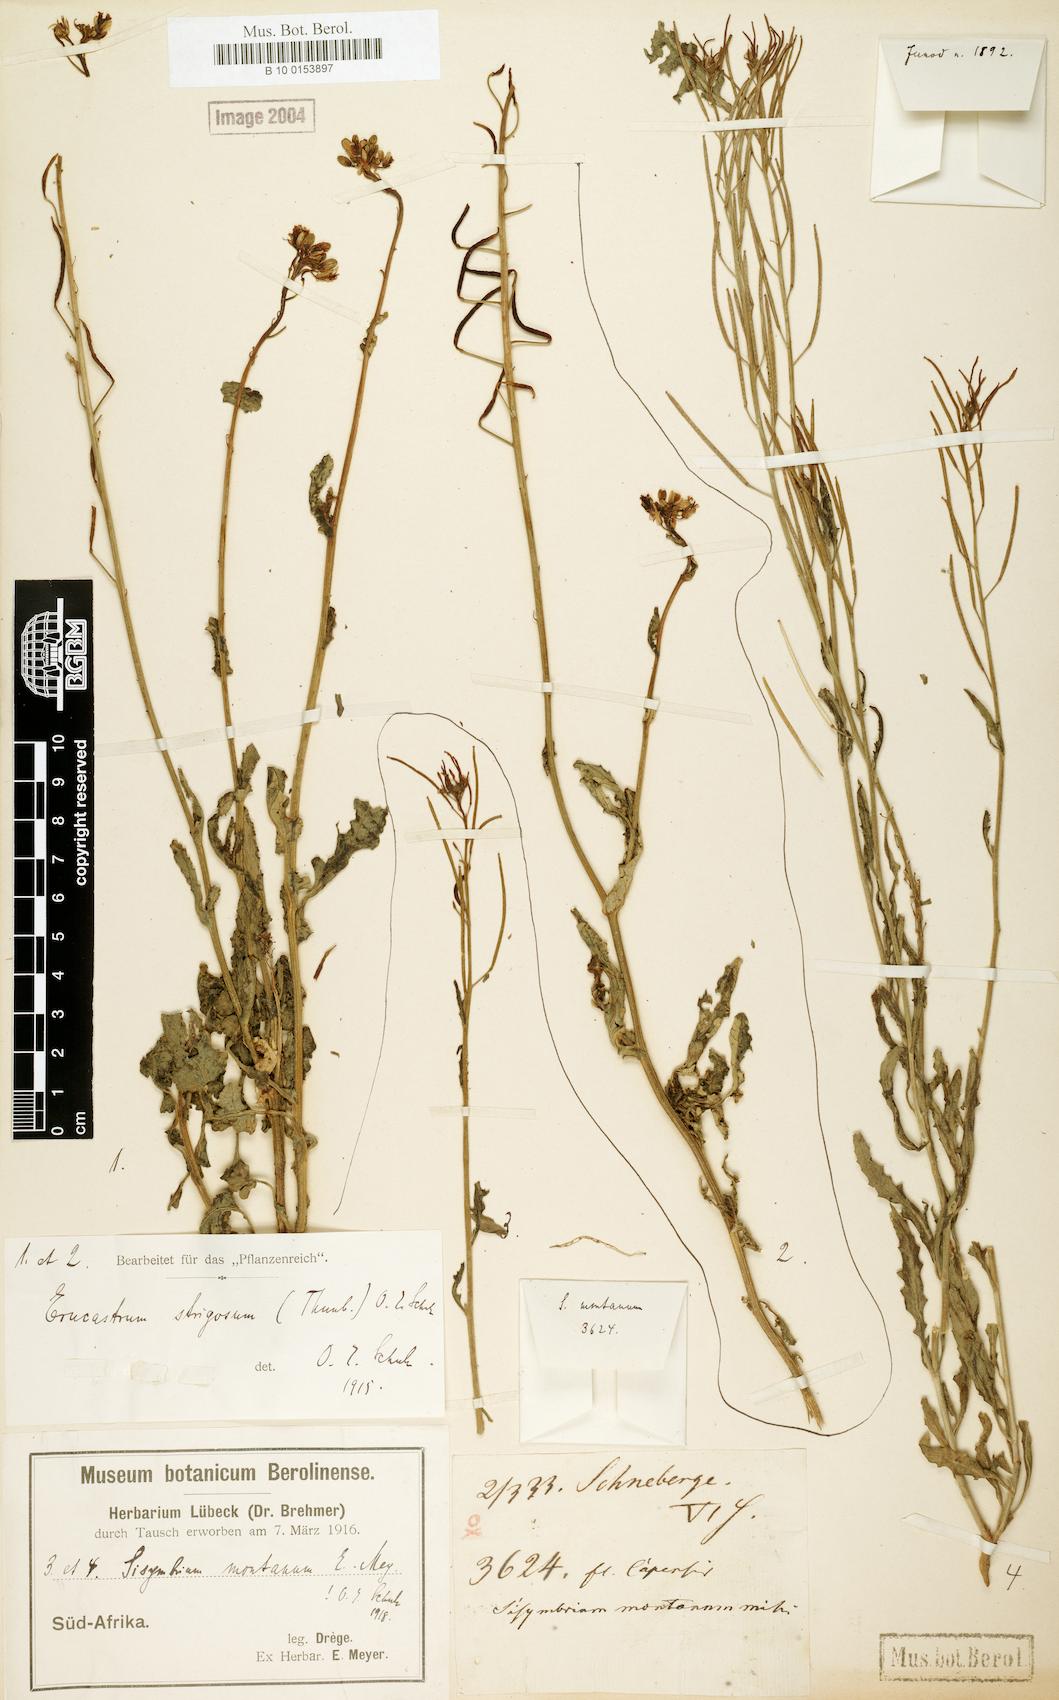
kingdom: Plantae
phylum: Tracheophyta
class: Magnoliopsida
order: Brassicales
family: Brassicaceae
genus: Sisymbrium
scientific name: Sisymbrium capense
